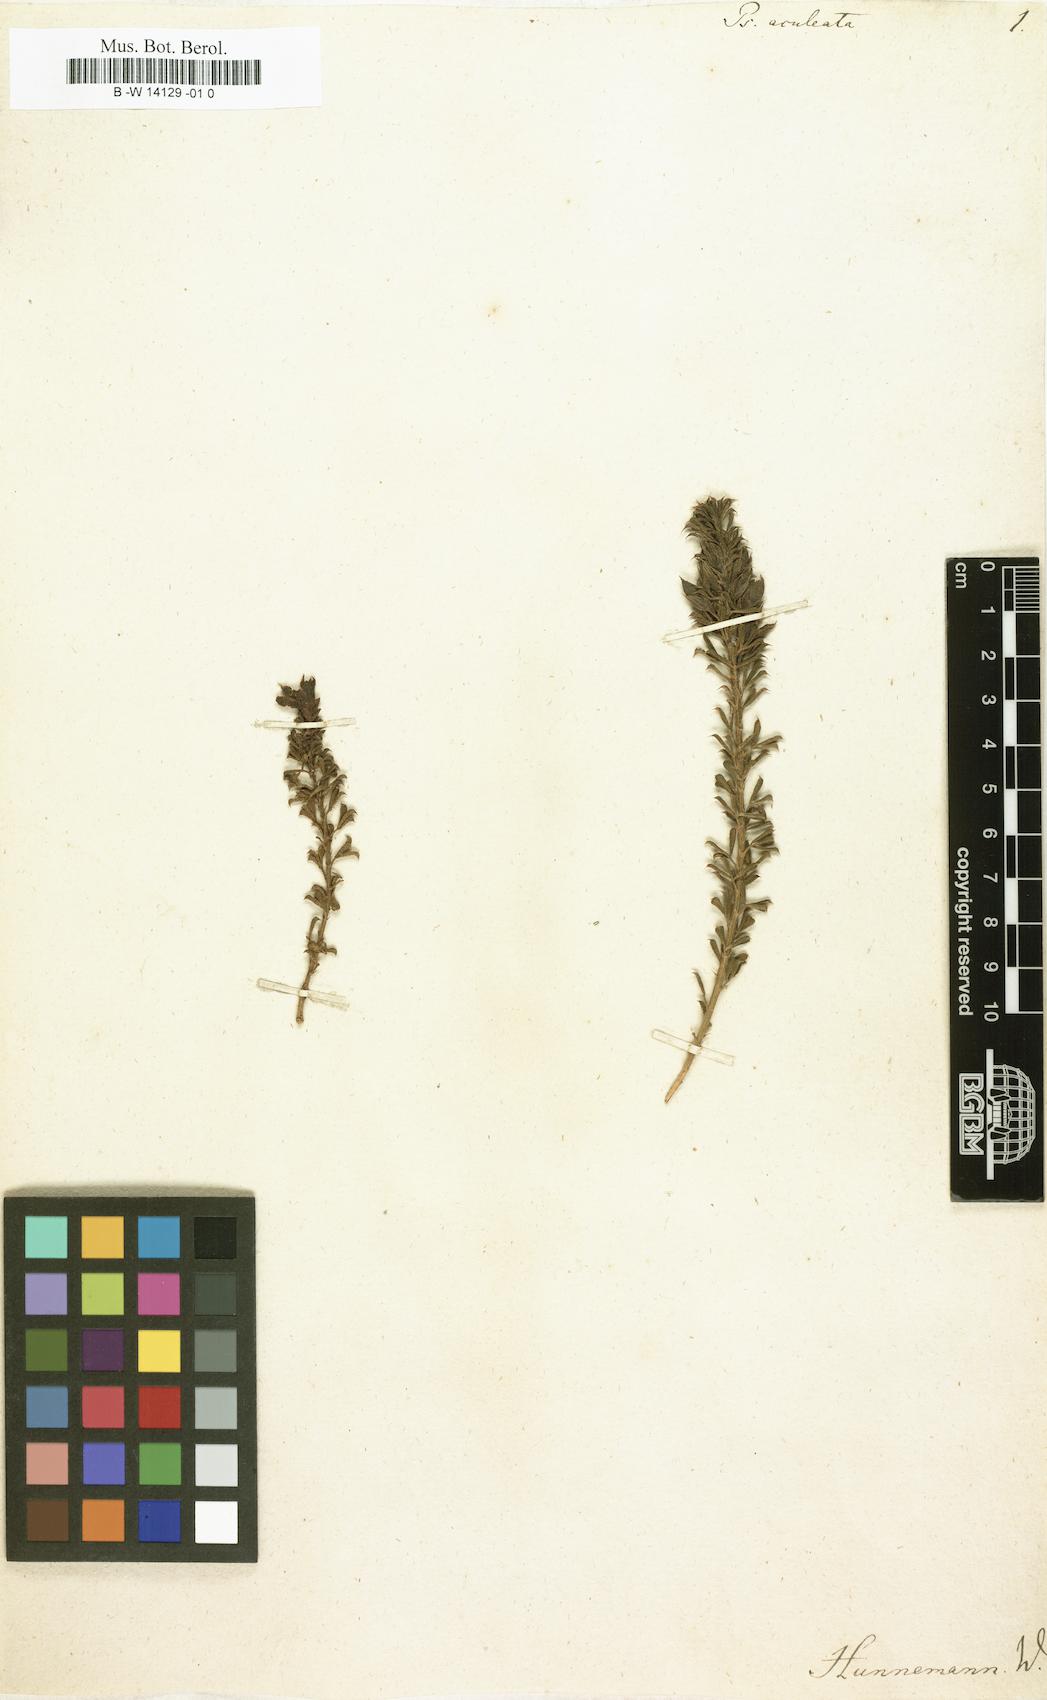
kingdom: Plantae
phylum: Tracheophyta
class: Magnoliopsida
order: Fabales
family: Fabaceae
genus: Psoralea
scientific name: Psoralea aculeata
